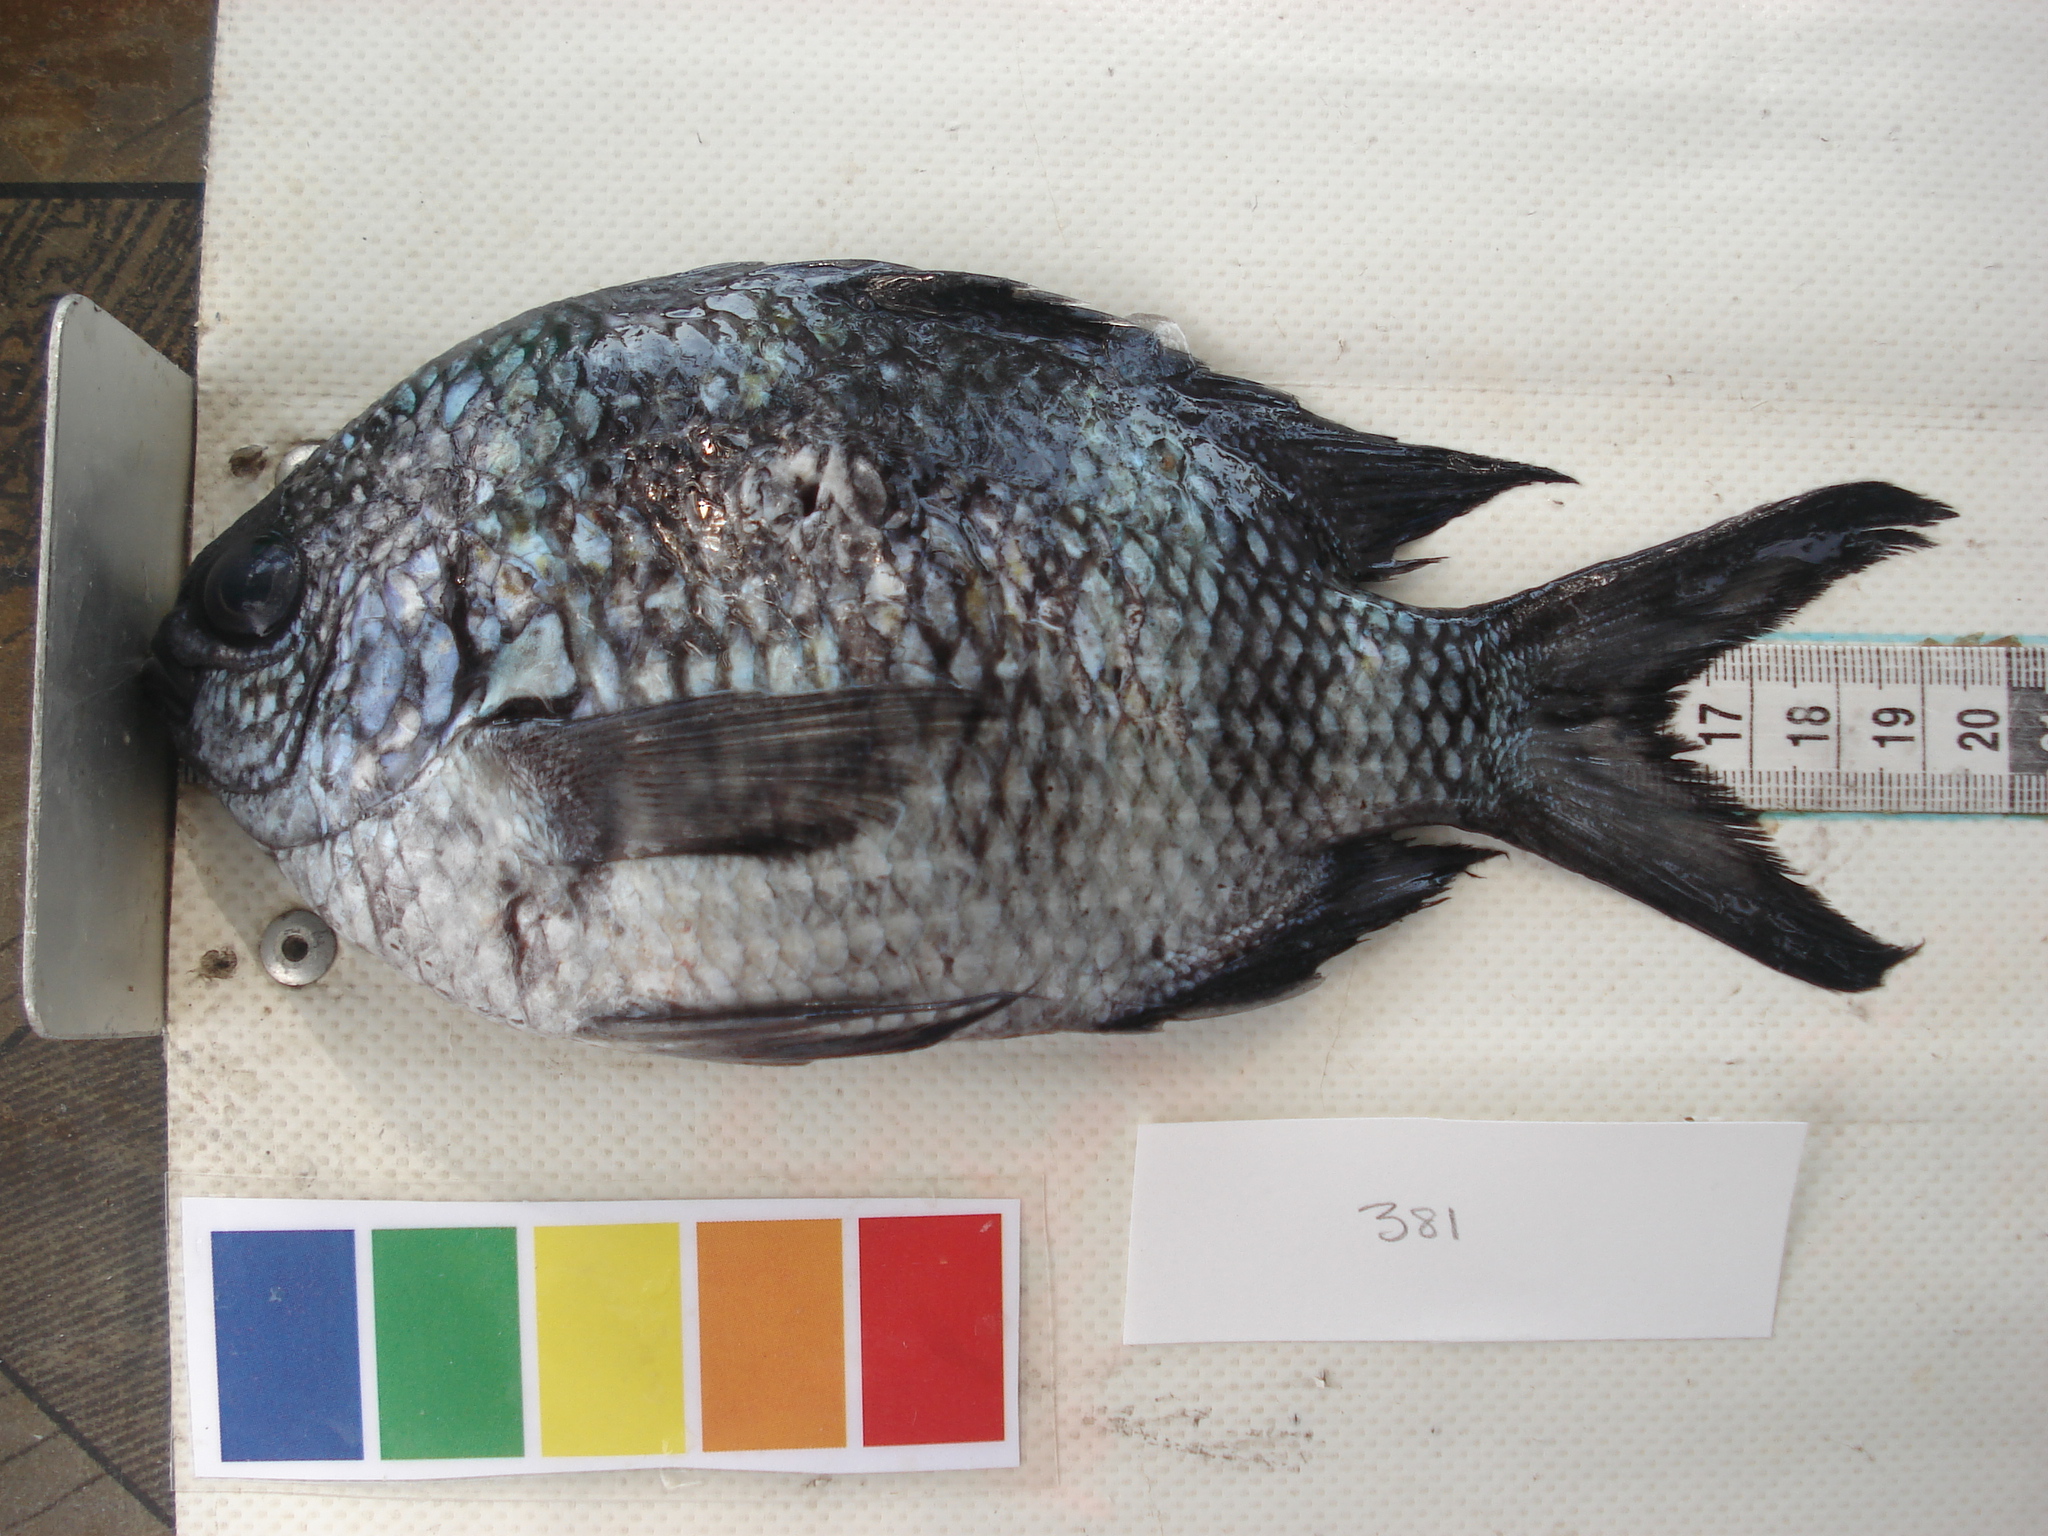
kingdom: Animalia
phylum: Chordata
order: Perciformes
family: Pomacentridae
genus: Abudefduf
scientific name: Abudefduf natalensis
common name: Natal sergeant
